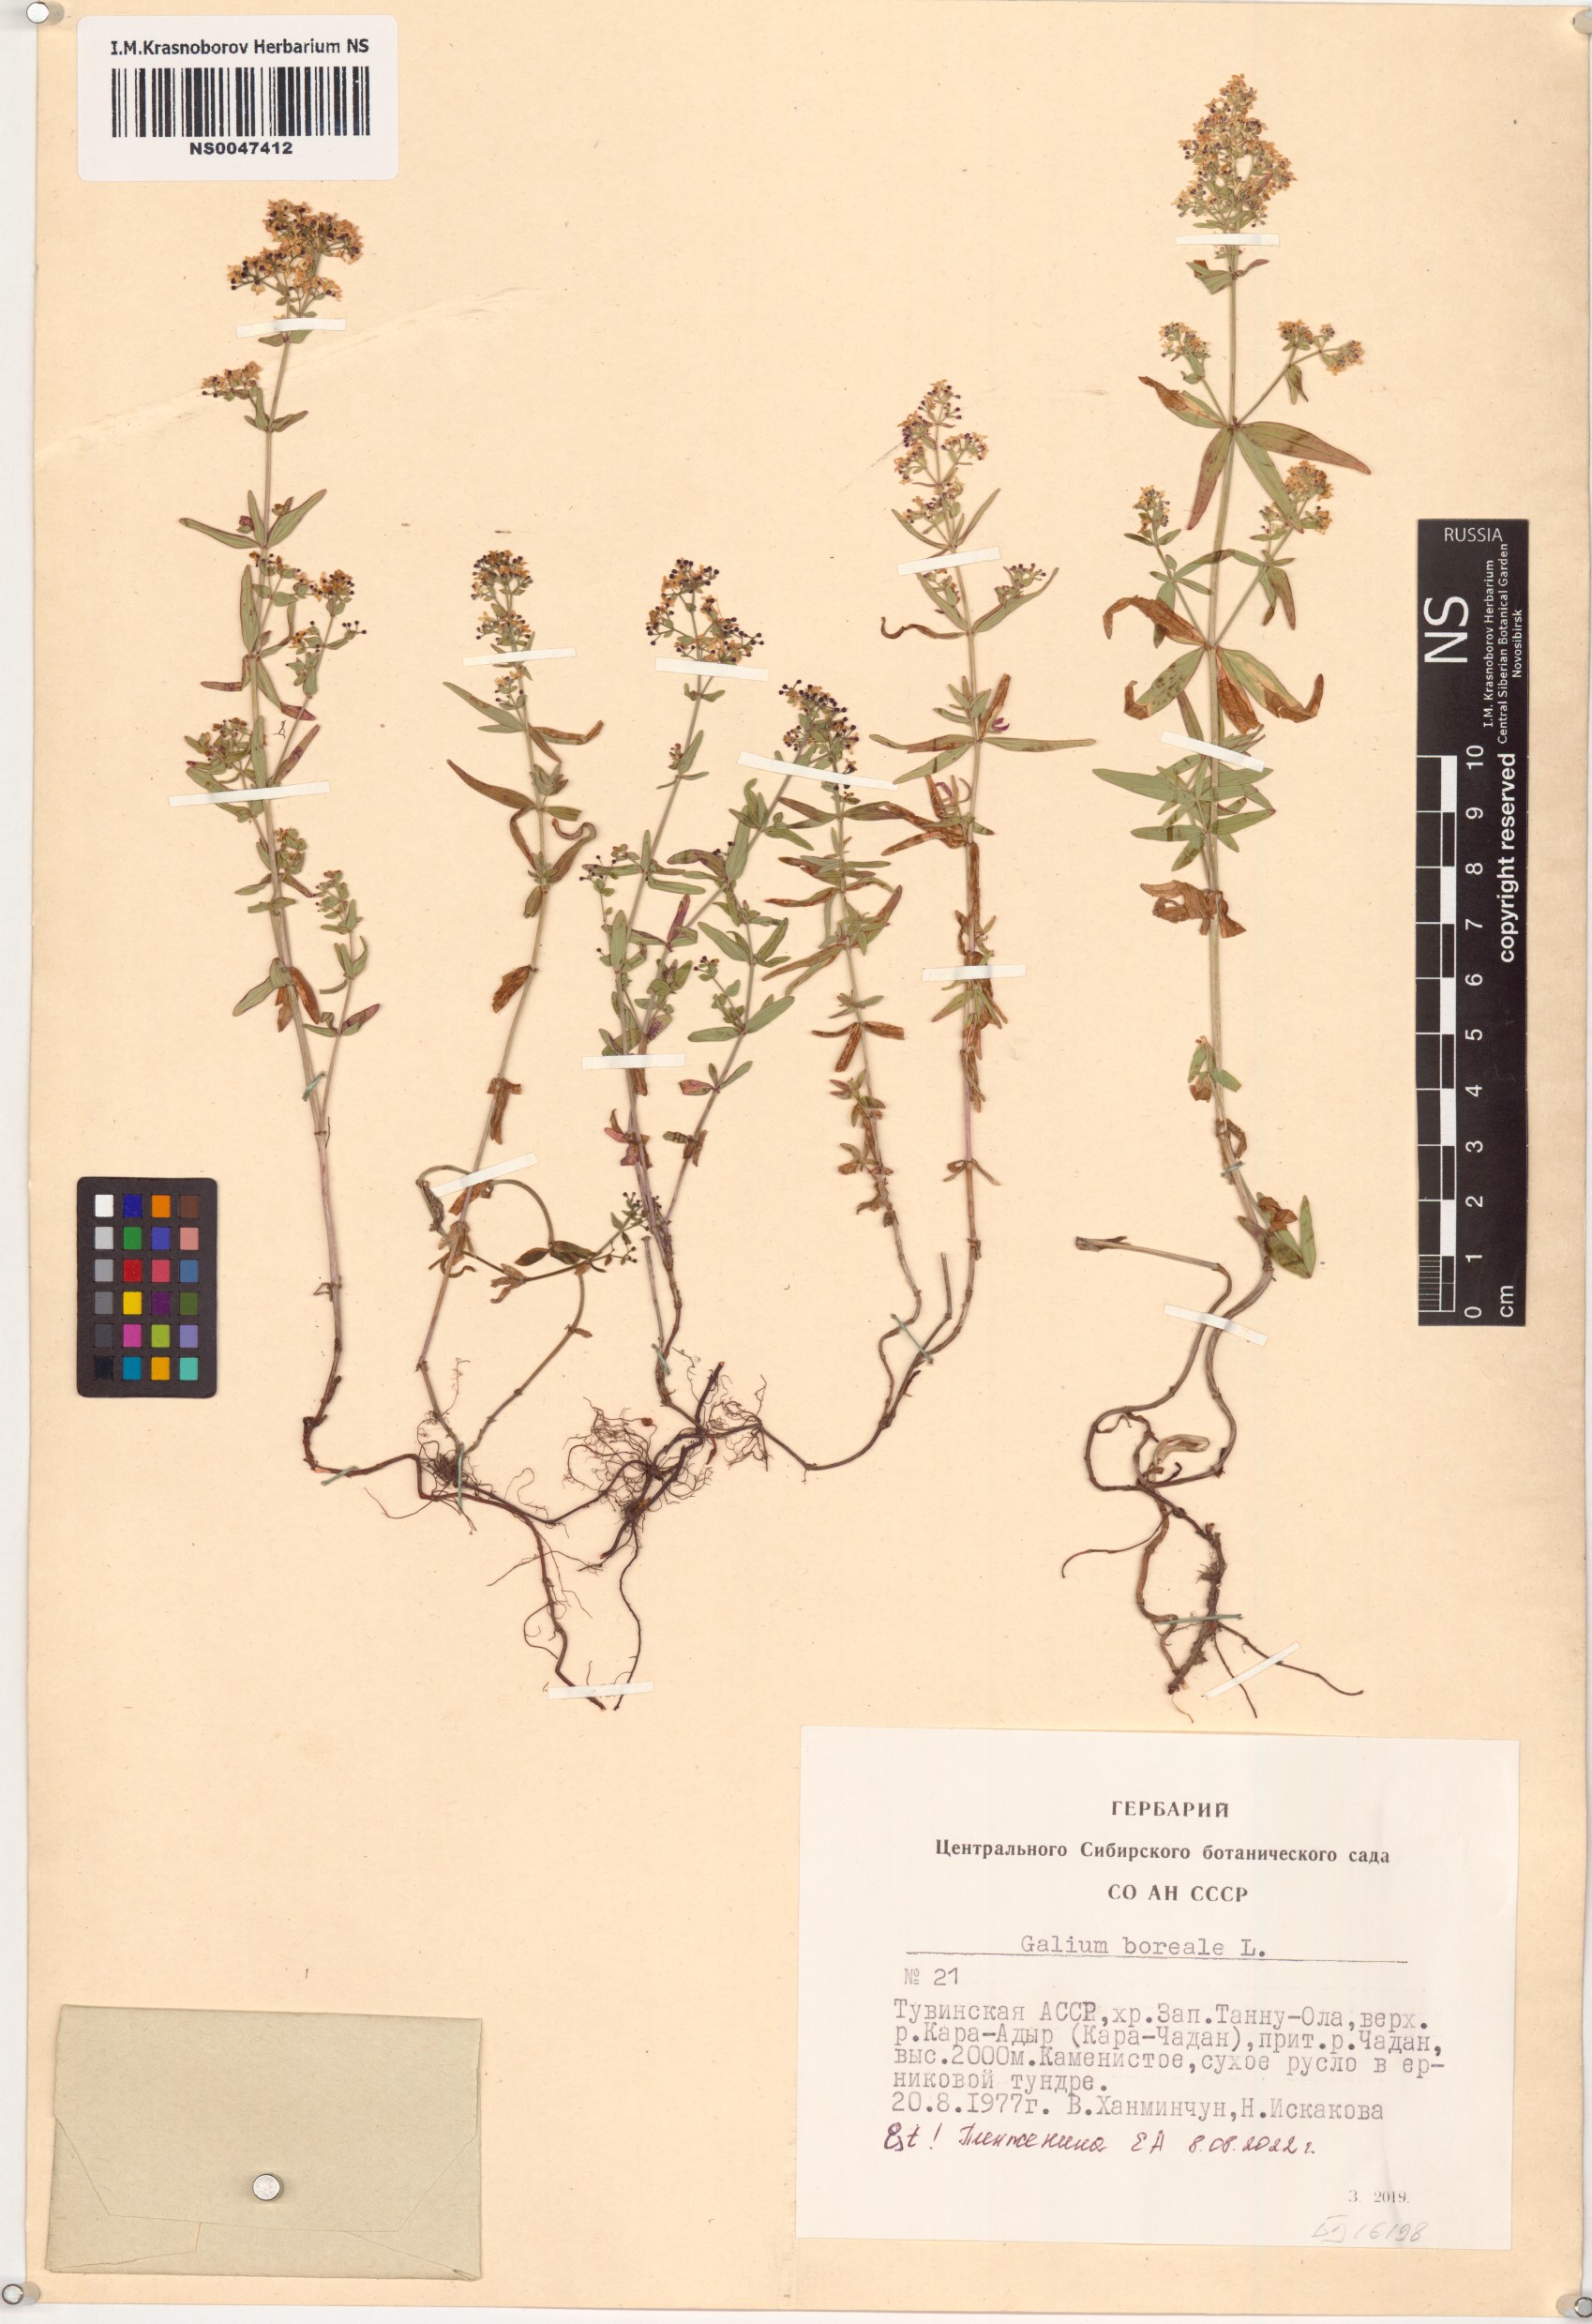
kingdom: Plantae
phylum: Tracheophyta
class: Magnoliopsida
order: Gentianales
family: Rubiaceae
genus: Galium
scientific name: Galium boreale
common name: Northern bedstraw
